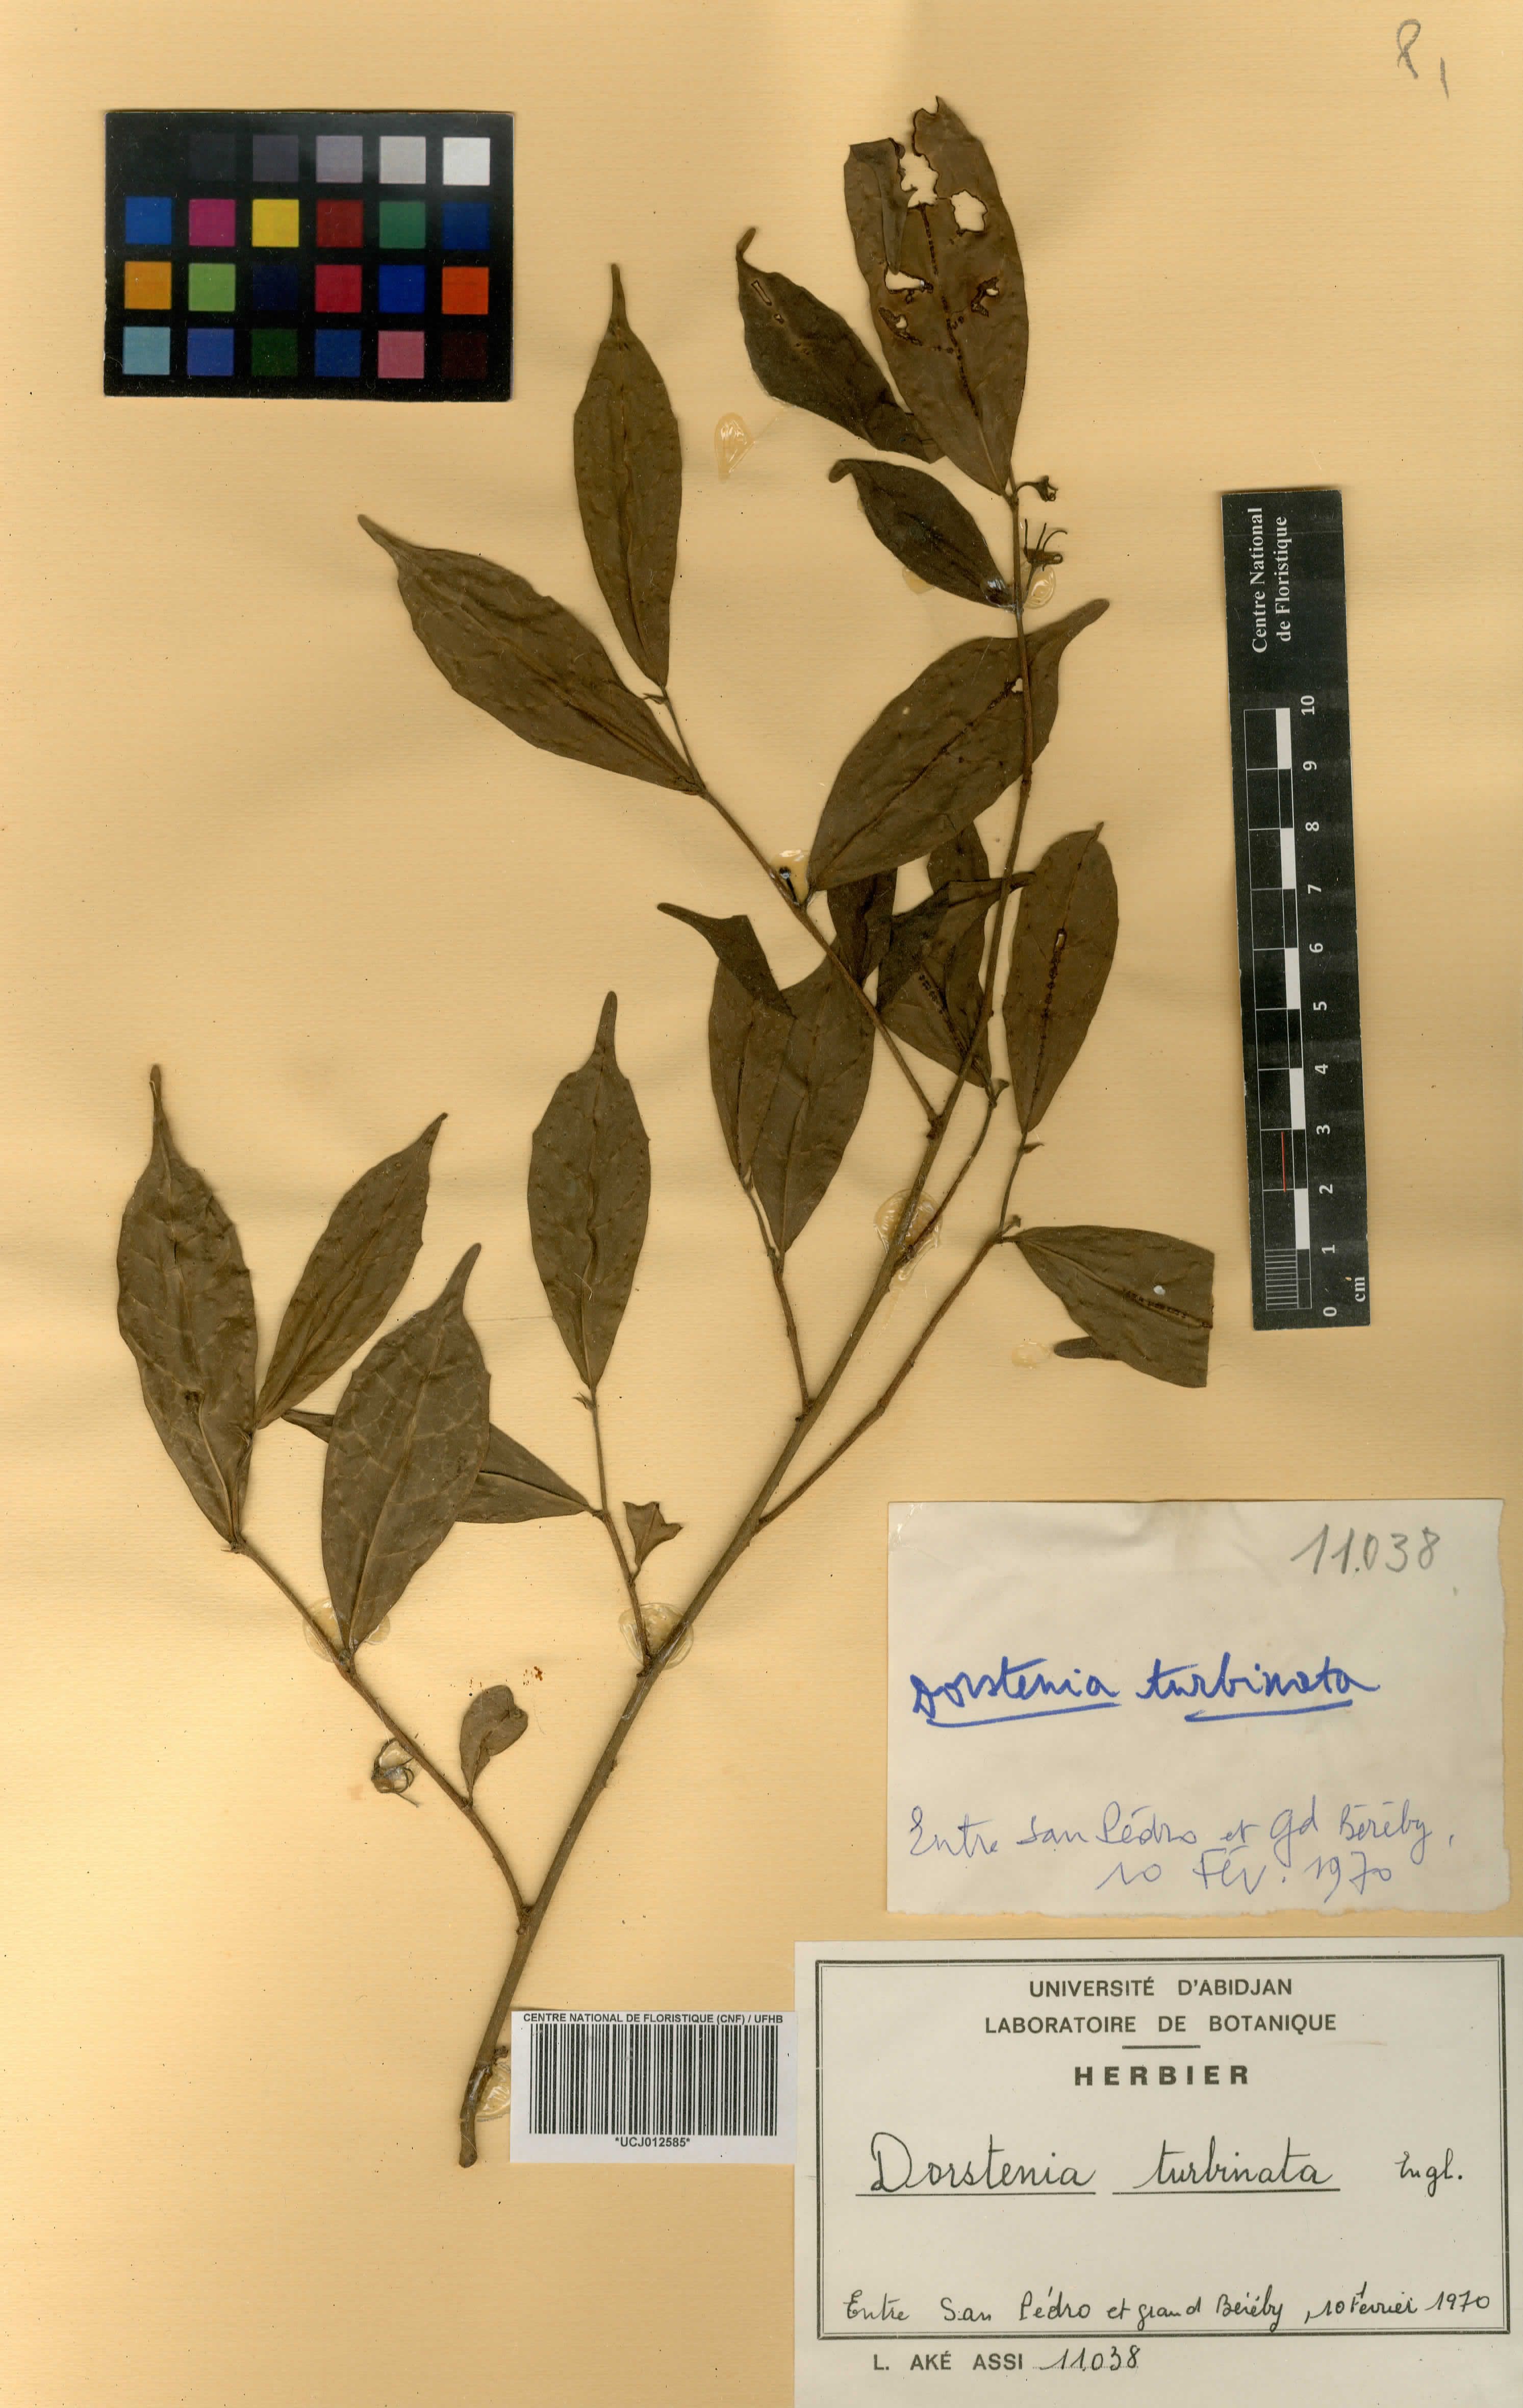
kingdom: Plantae
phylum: Tracheophyta
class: Magnoliopsida
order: Rosales
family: Moraceae
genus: Hijmania
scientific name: Hijmania turbinata
